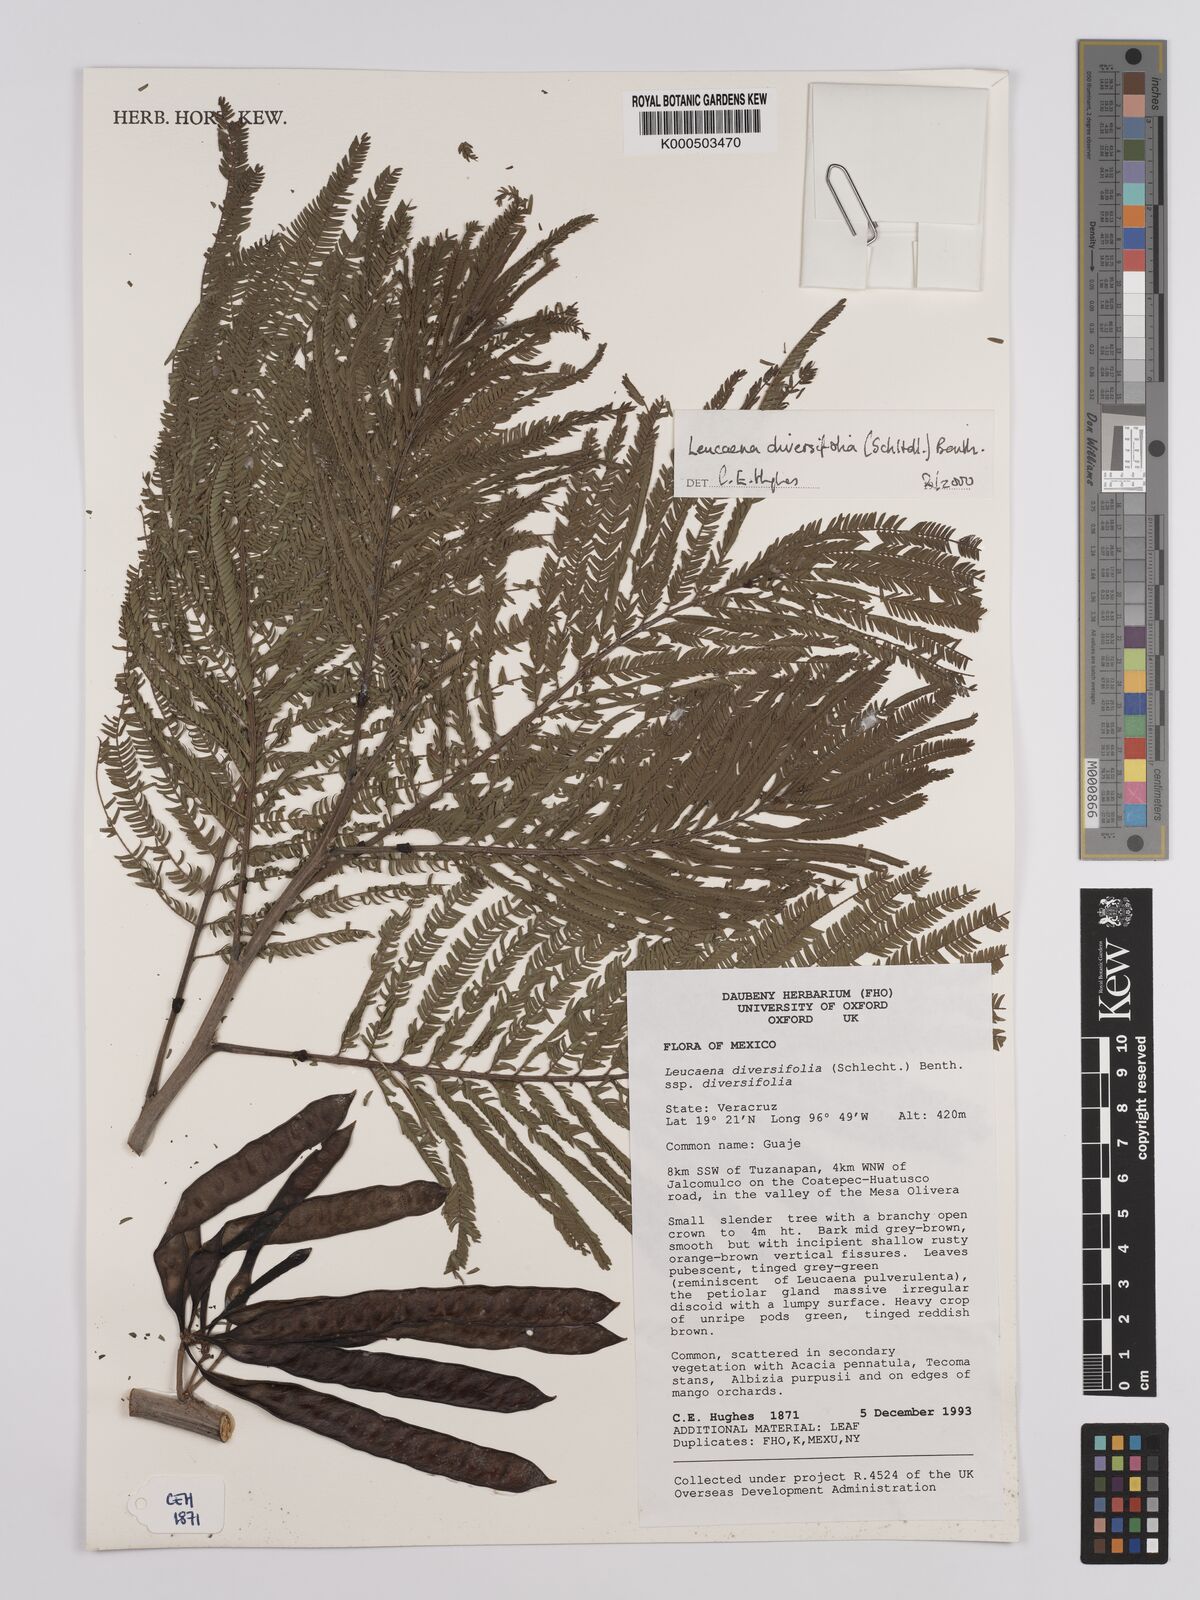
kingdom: Plantae
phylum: Tracheophyta
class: Magnoliopsida
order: Fabales
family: Fabaceae
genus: Leucaena
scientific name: Leucaena diversifolia
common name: Red leucaena
